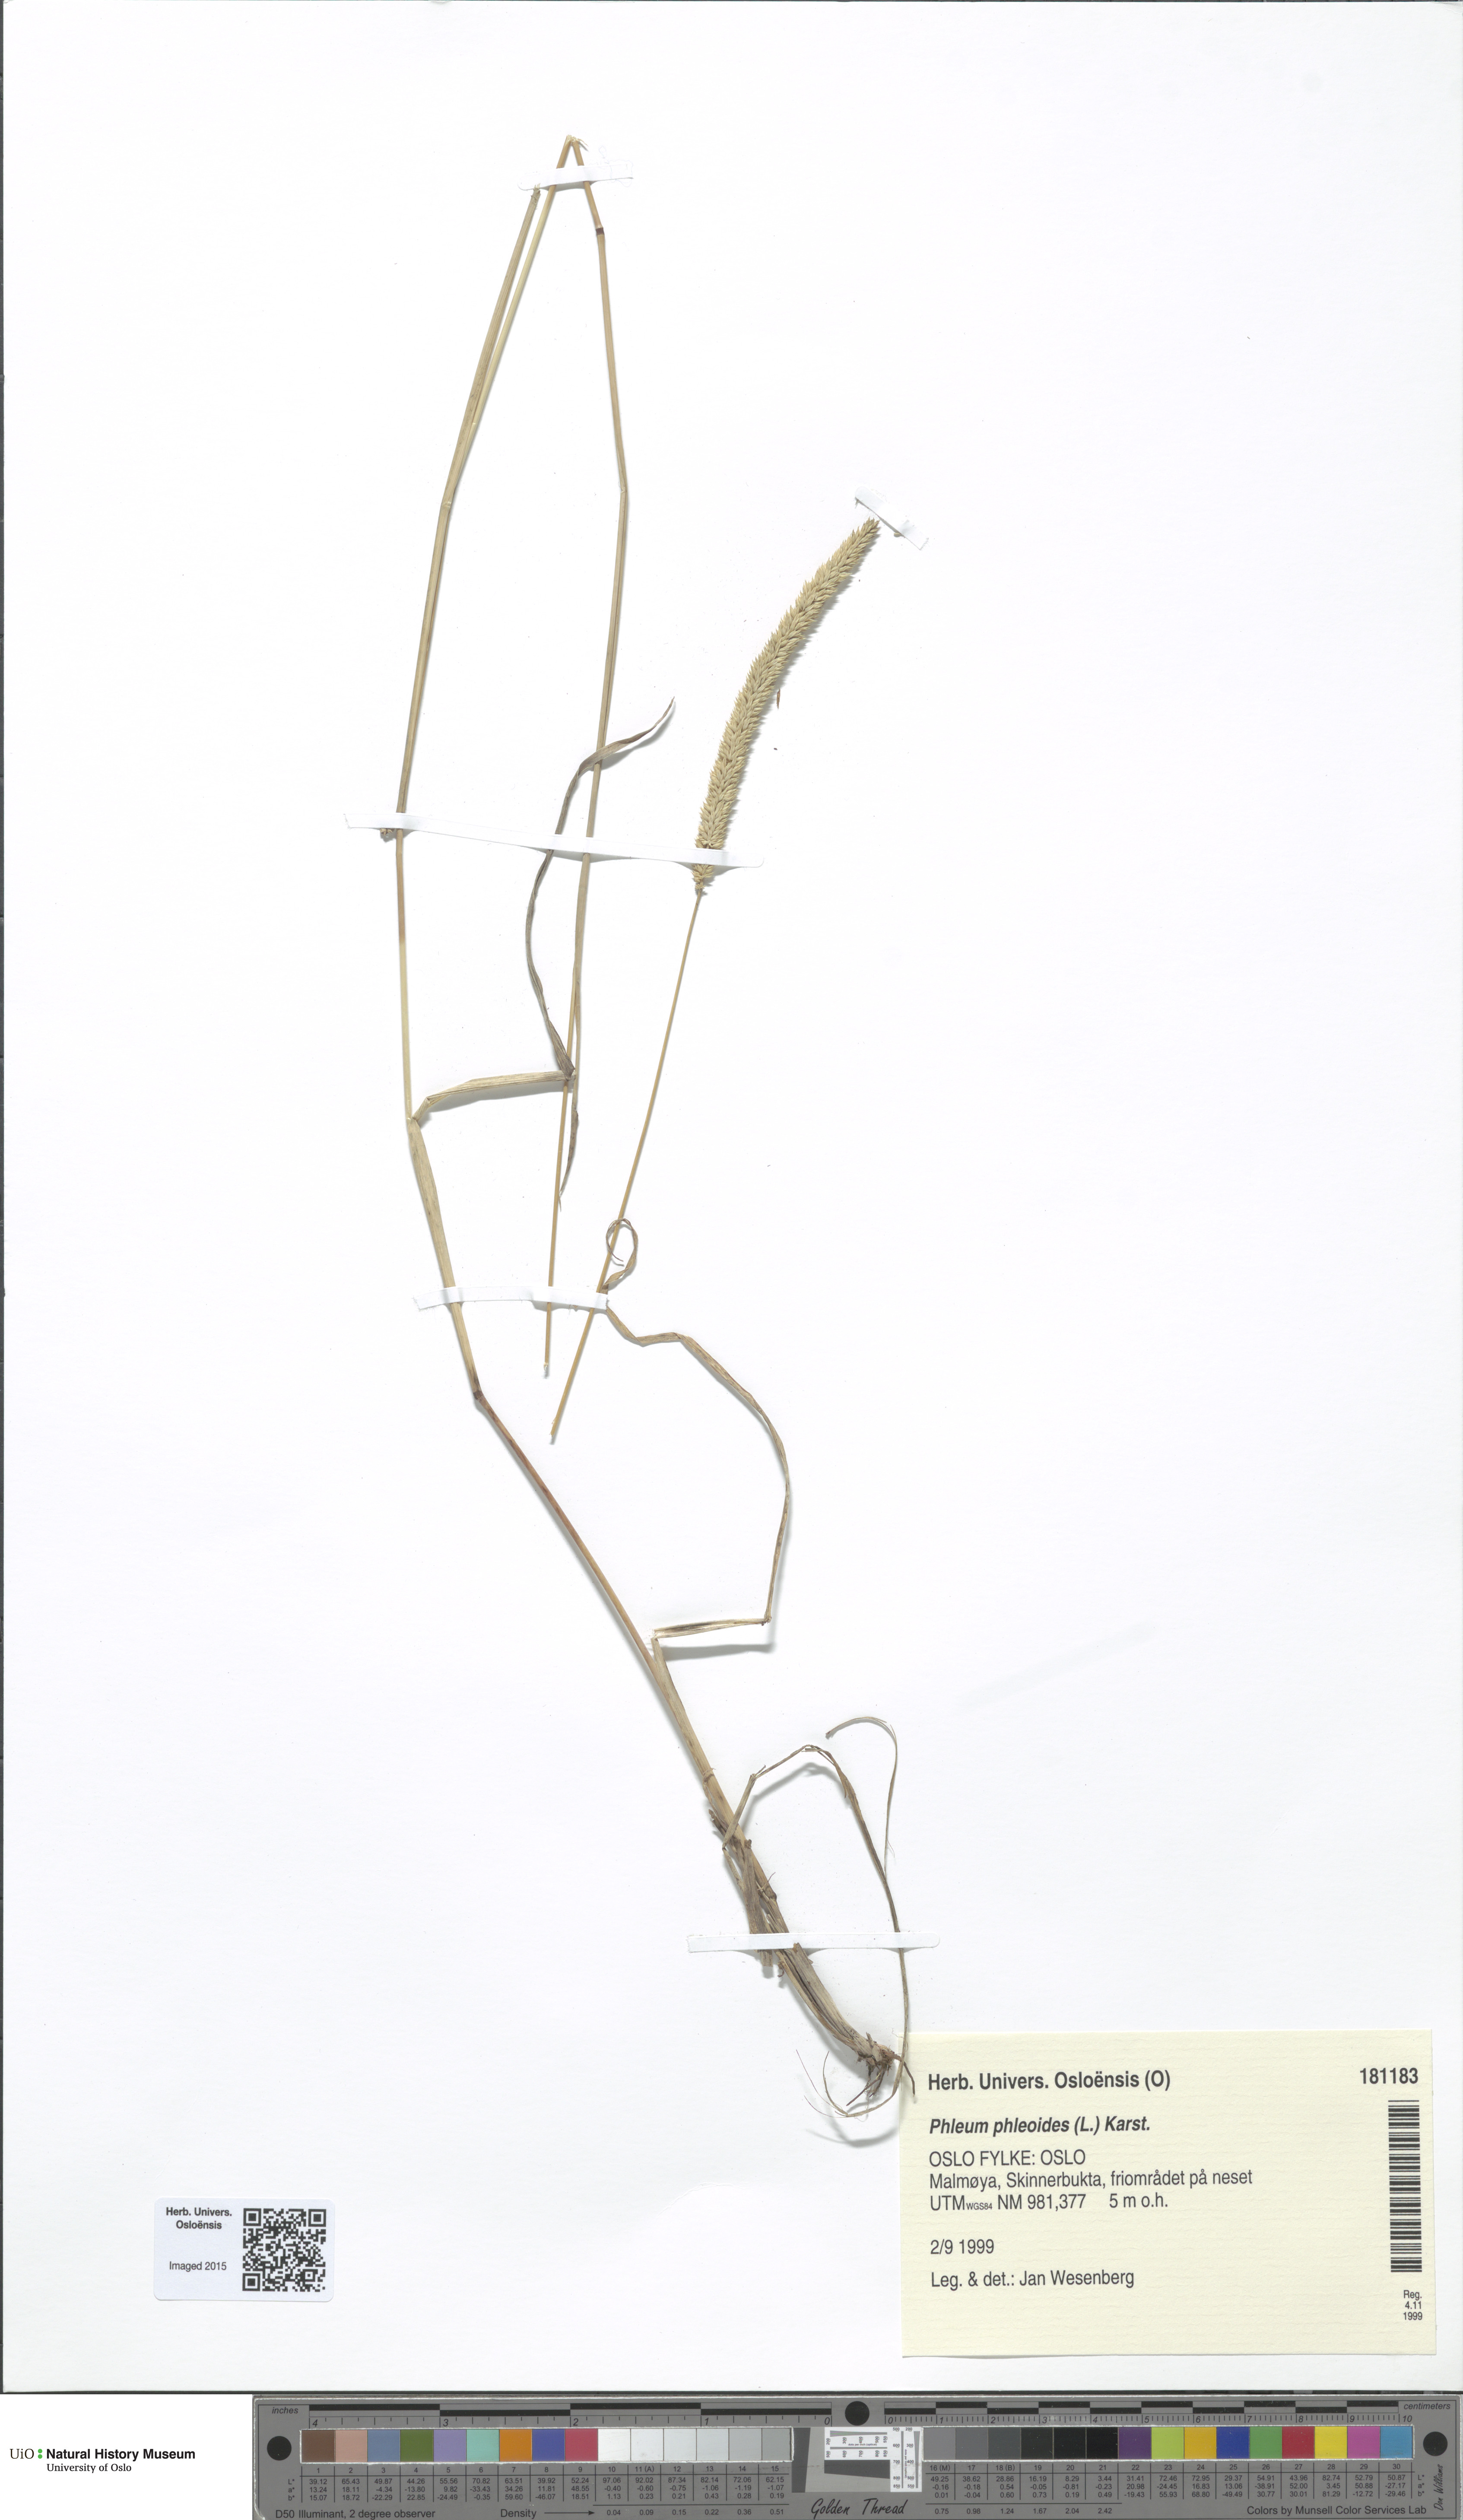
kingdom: Plantae
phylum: Tracheophyta
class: Liliopsida
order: Poales
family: Poaceae
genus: Phleum
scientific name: Phleum phleoides
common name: Purple-stem cat's-tail
